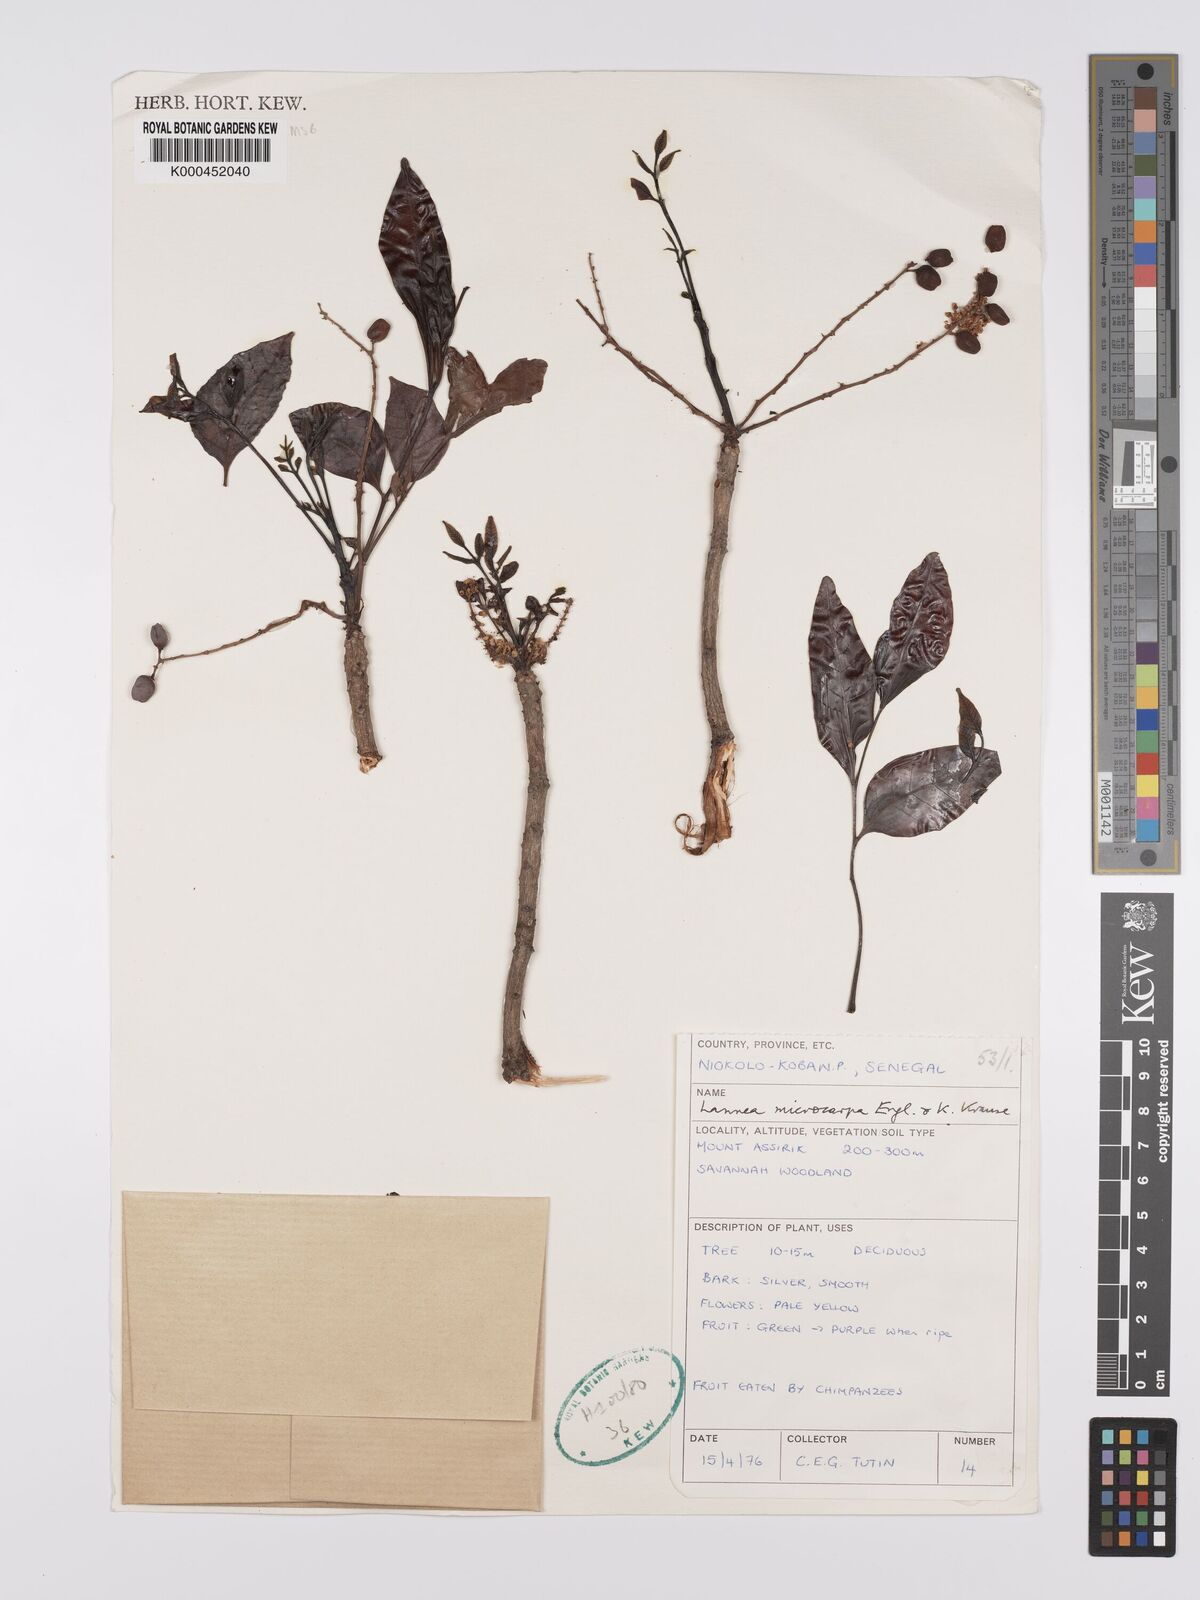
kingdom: Plantae
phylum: Tracheophyta
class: Magnoliopsida
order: Sapindales
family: Anacardiaceae
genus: Lannea
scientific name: Lannea microcarpa
